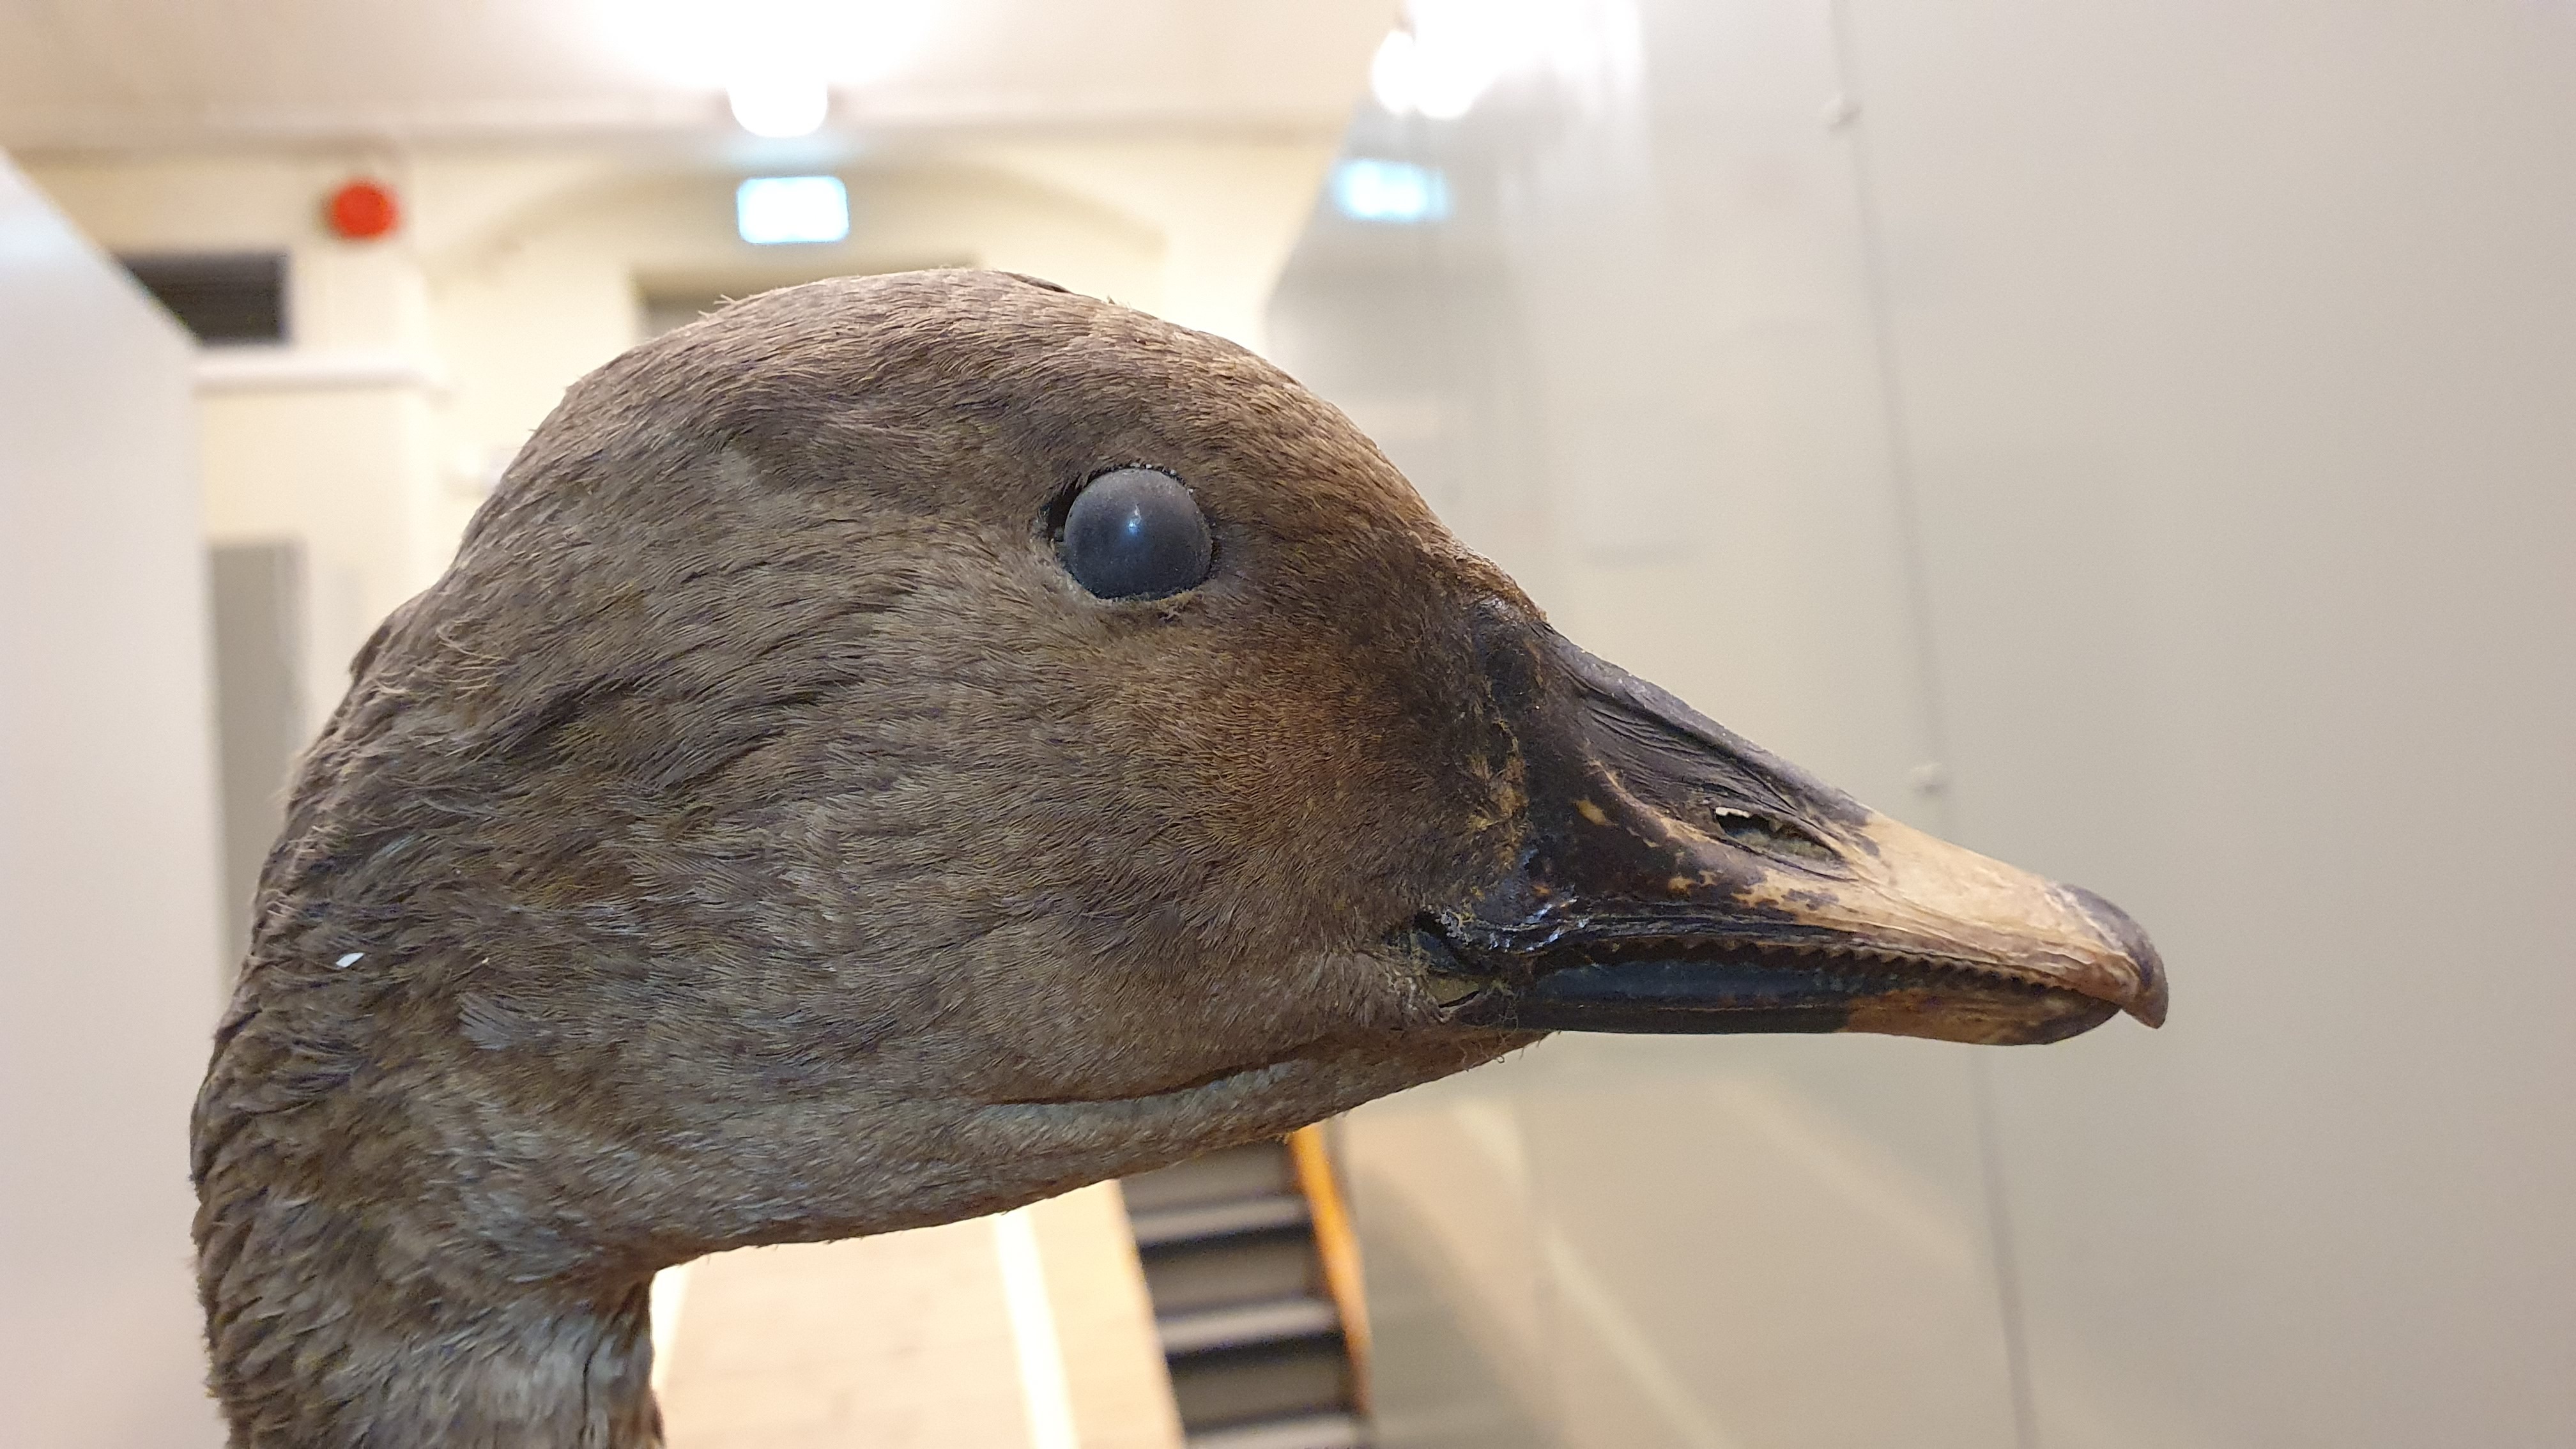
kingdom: Animalia
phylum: Chordata
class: Aves
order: Anseriformes
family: Anatidae
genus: Anser
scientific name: Anser fabalis
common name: Bean goose
